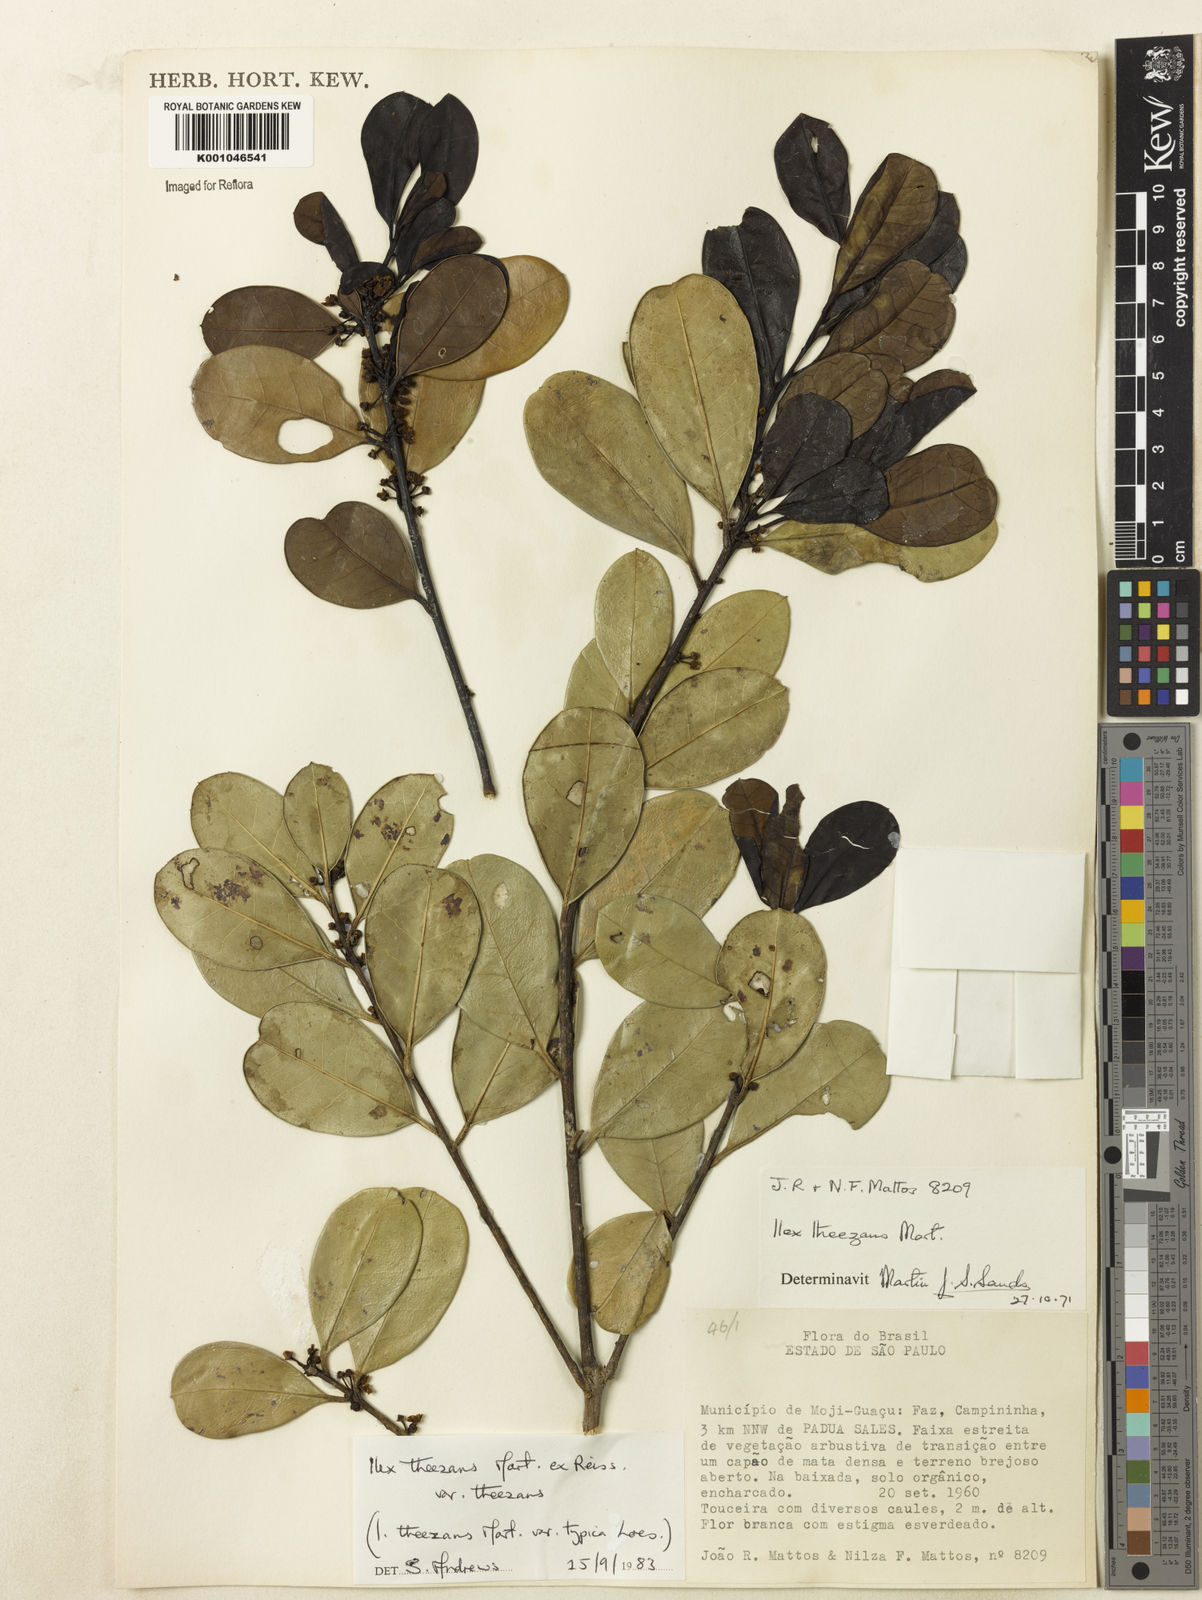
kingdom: Plantae
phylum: Tracheophyta
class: Magnoliopsida
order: Aquifoliales
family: Aquifoliaceae
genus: Ilex
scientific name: Ilex theezans
